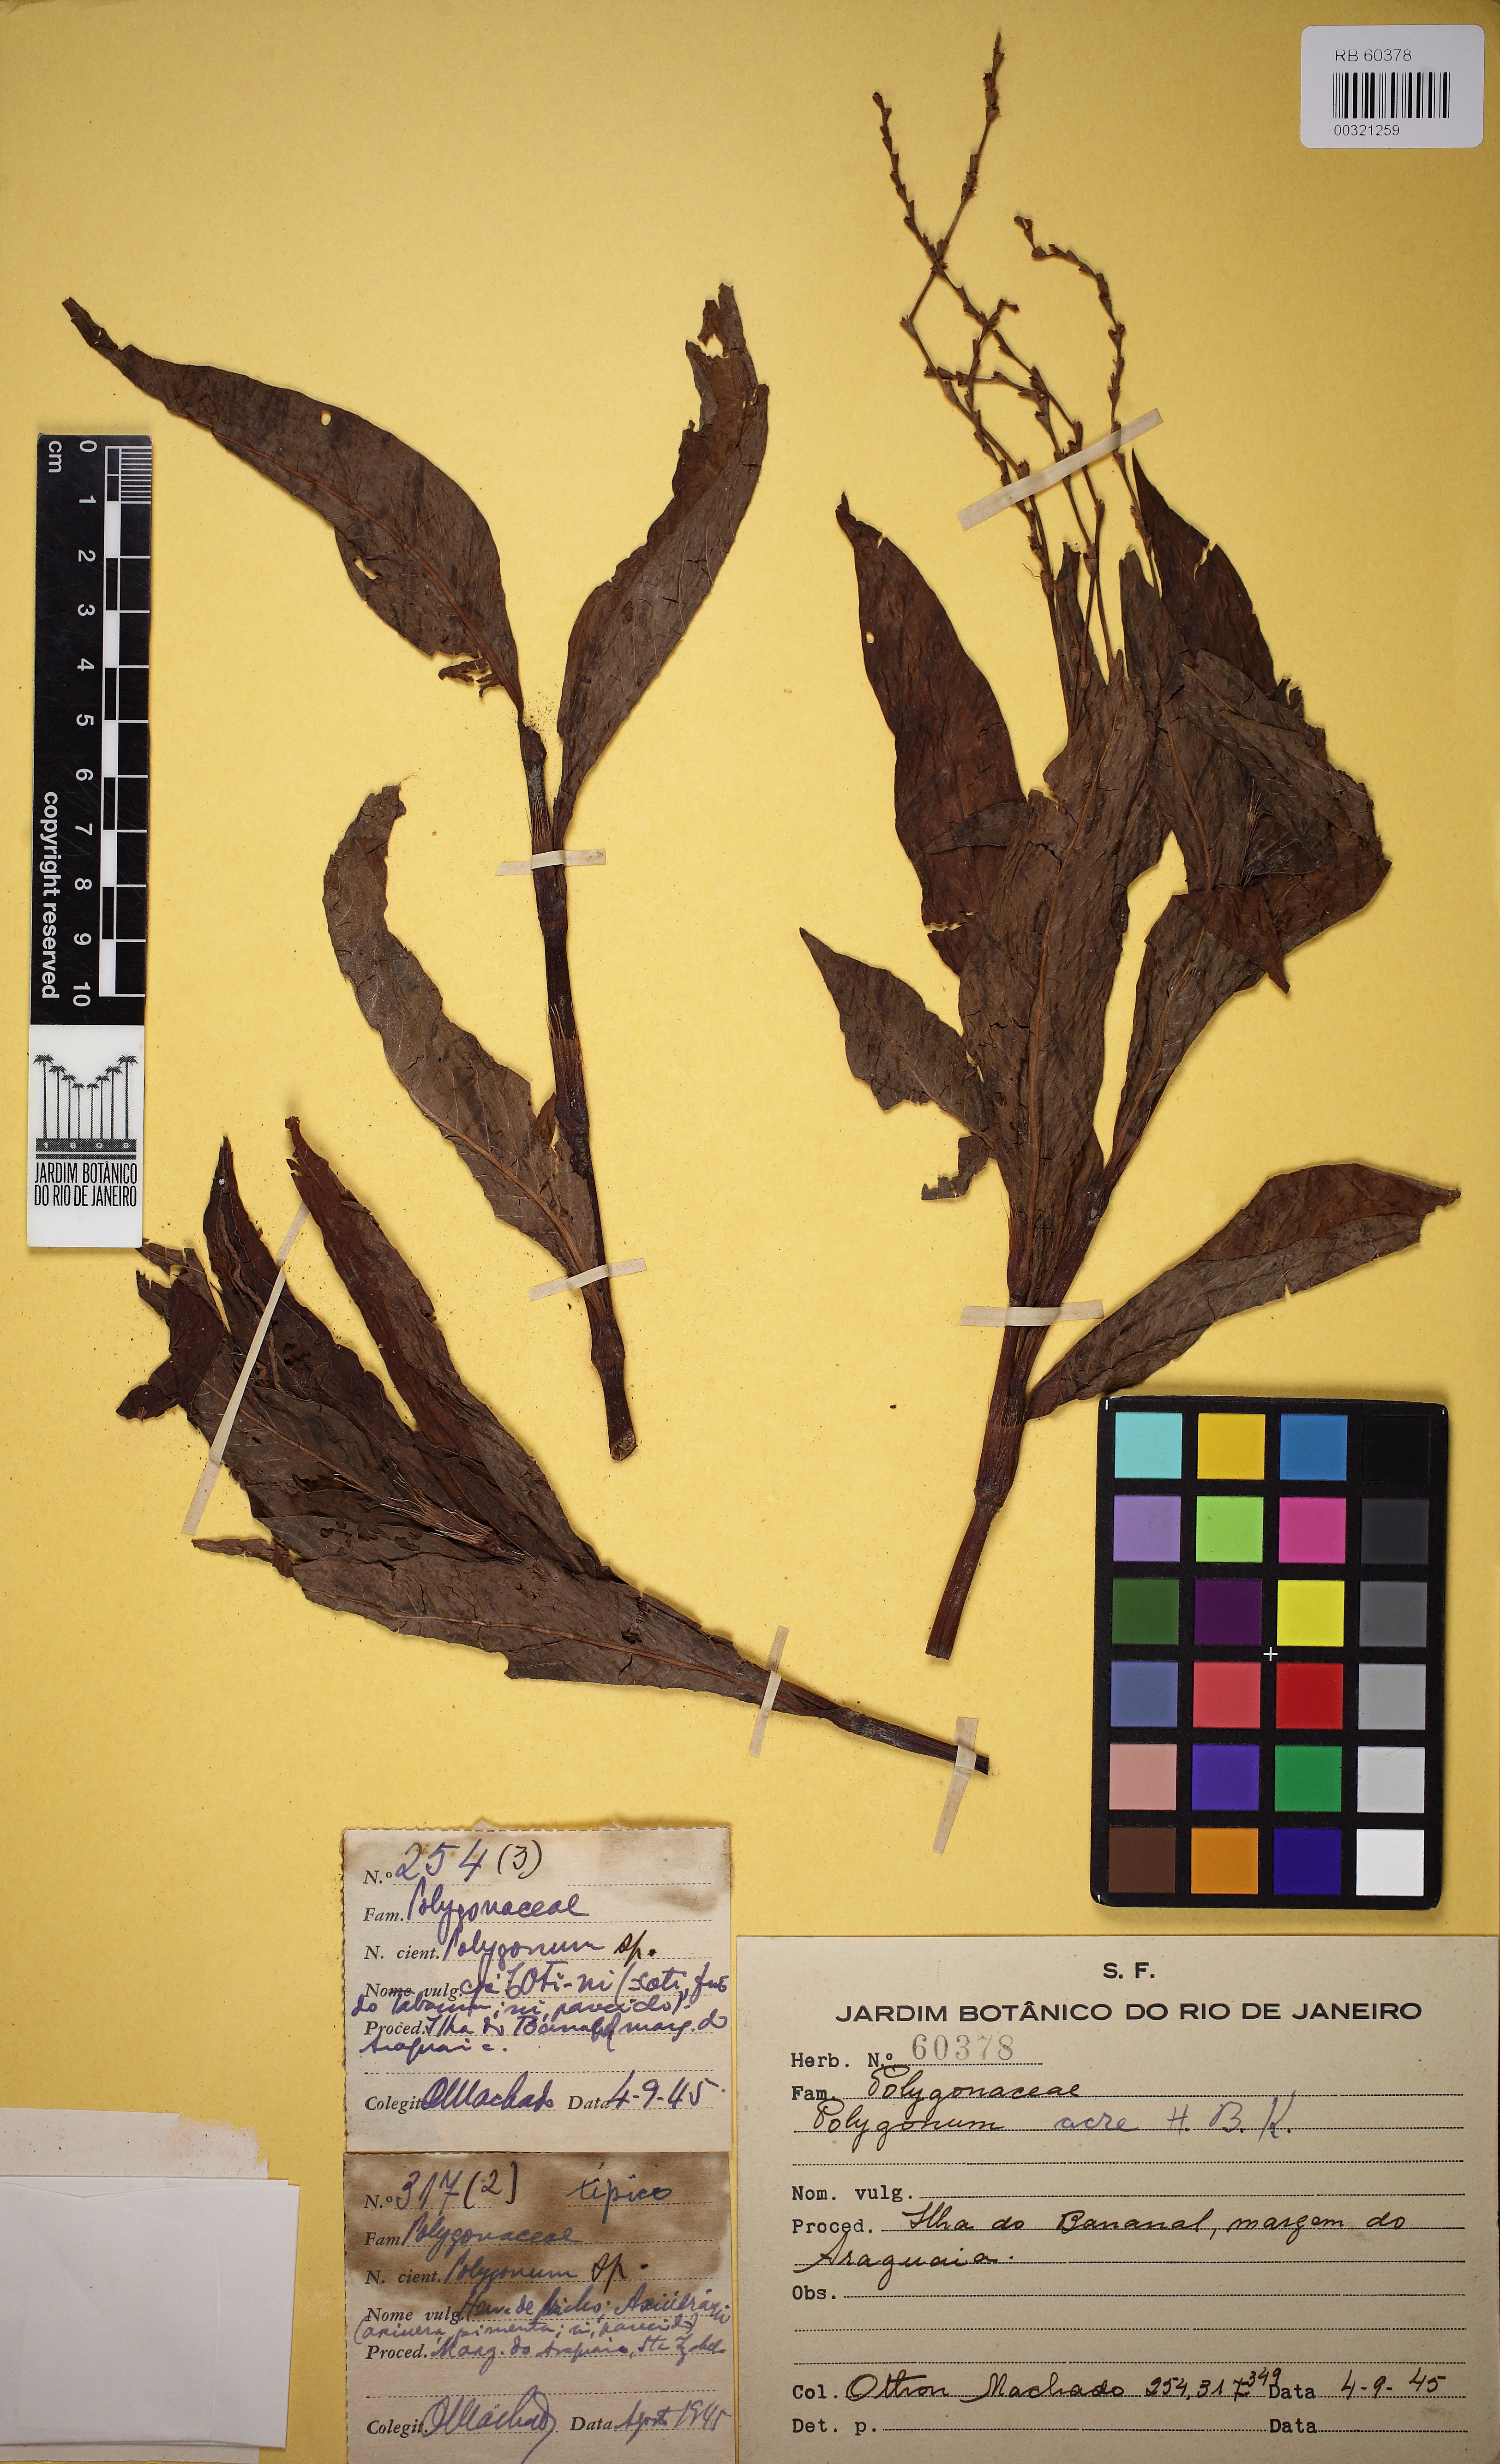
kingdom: Plantae
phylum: Tracheophyta
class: Magnoliopsida
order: Caryophyllales
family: Polygonaceae
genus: Persicaria
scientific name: Persicaria punctata
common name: Dotted smartweed
